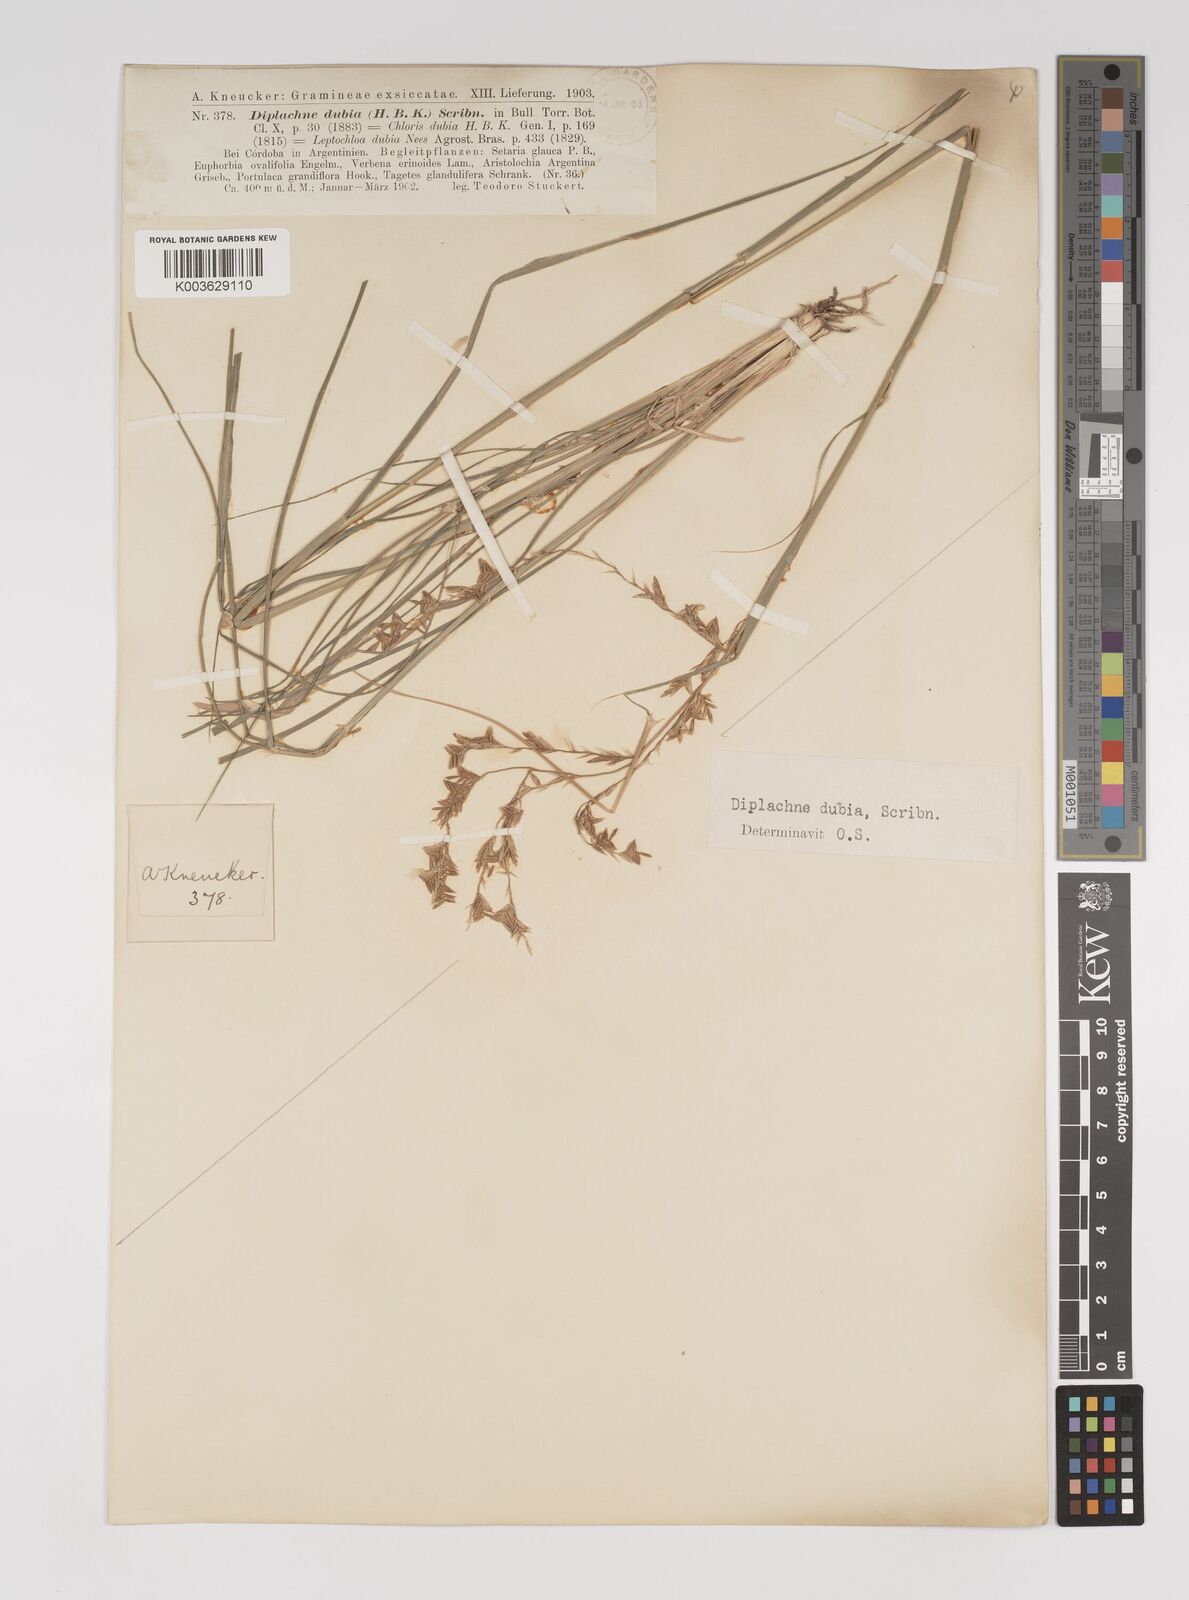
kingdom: Plantae
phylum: Tracheophyta
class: Liliopsida
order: Poales
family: Poaceae
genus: Disakisperma
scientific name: Disakisperma dubium
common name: Green sprangletop
